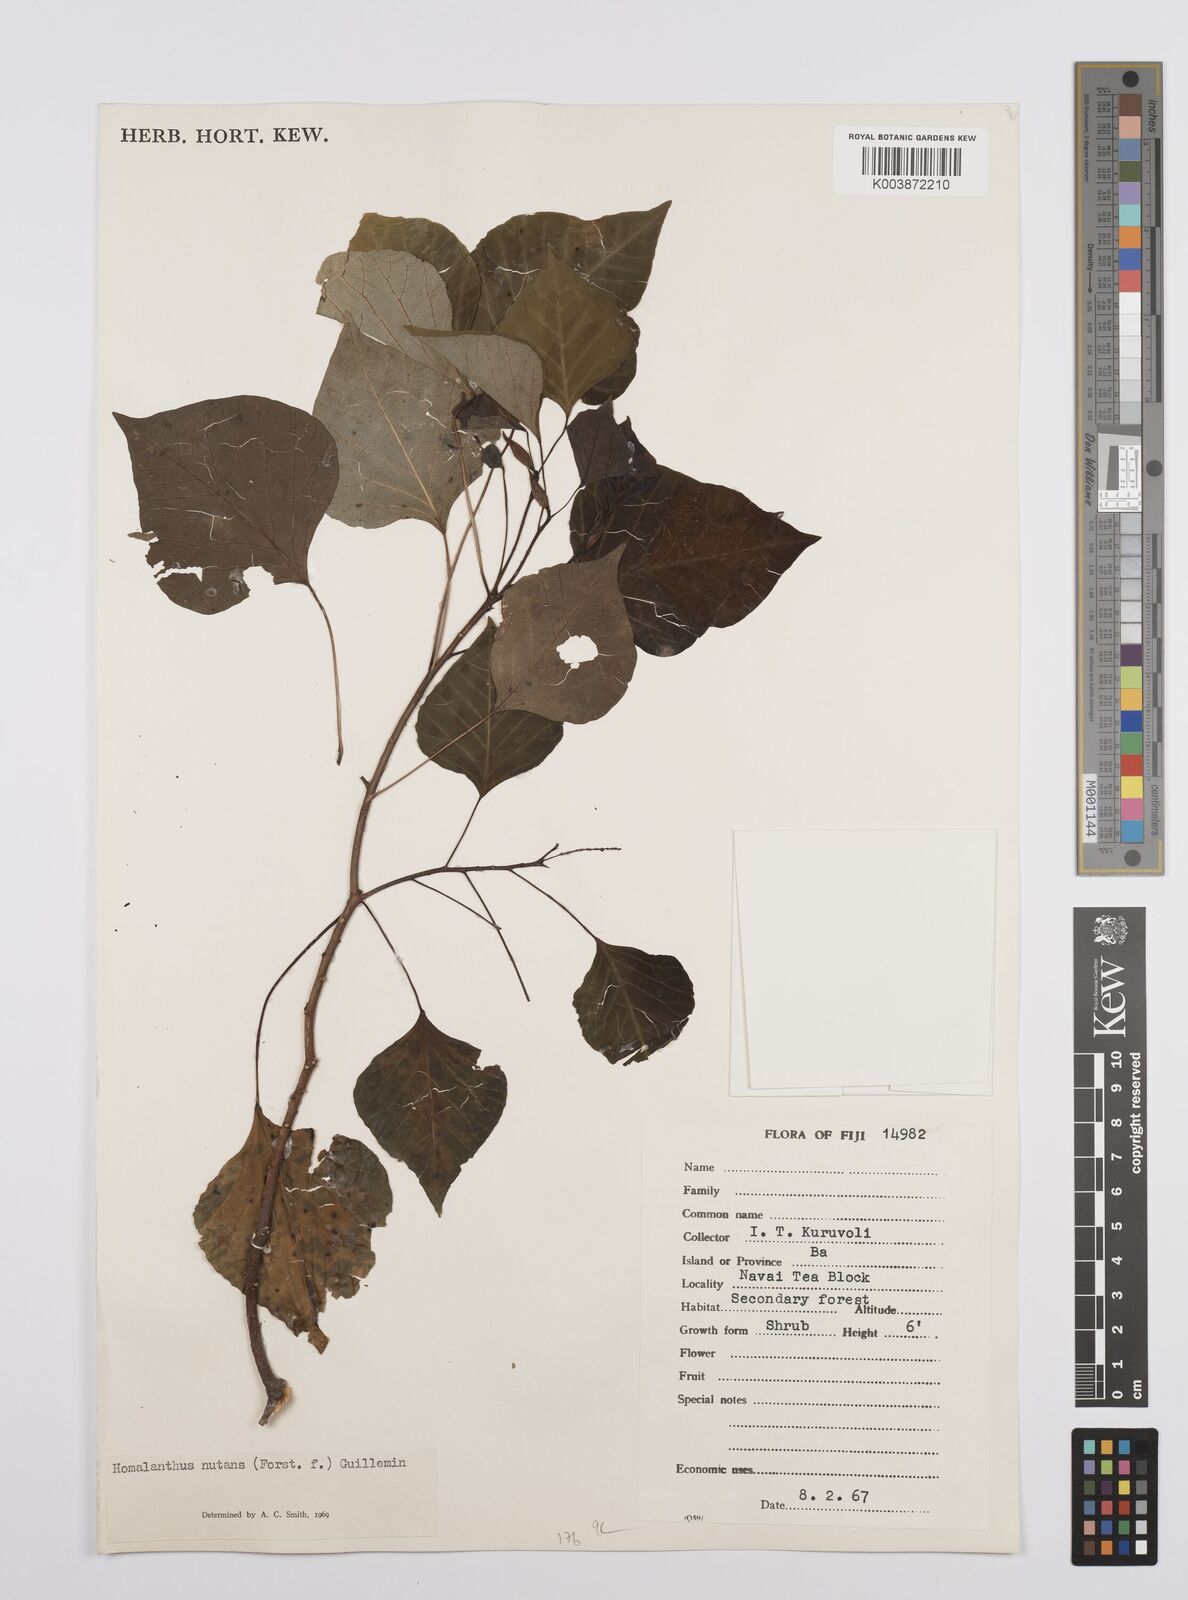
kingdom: Plantae
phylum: Tracheophyta
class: Magnoliopsida
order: Malpighiales
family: Euphorbiaceae
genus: Homalanthus
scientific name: Homalanthus nutans
